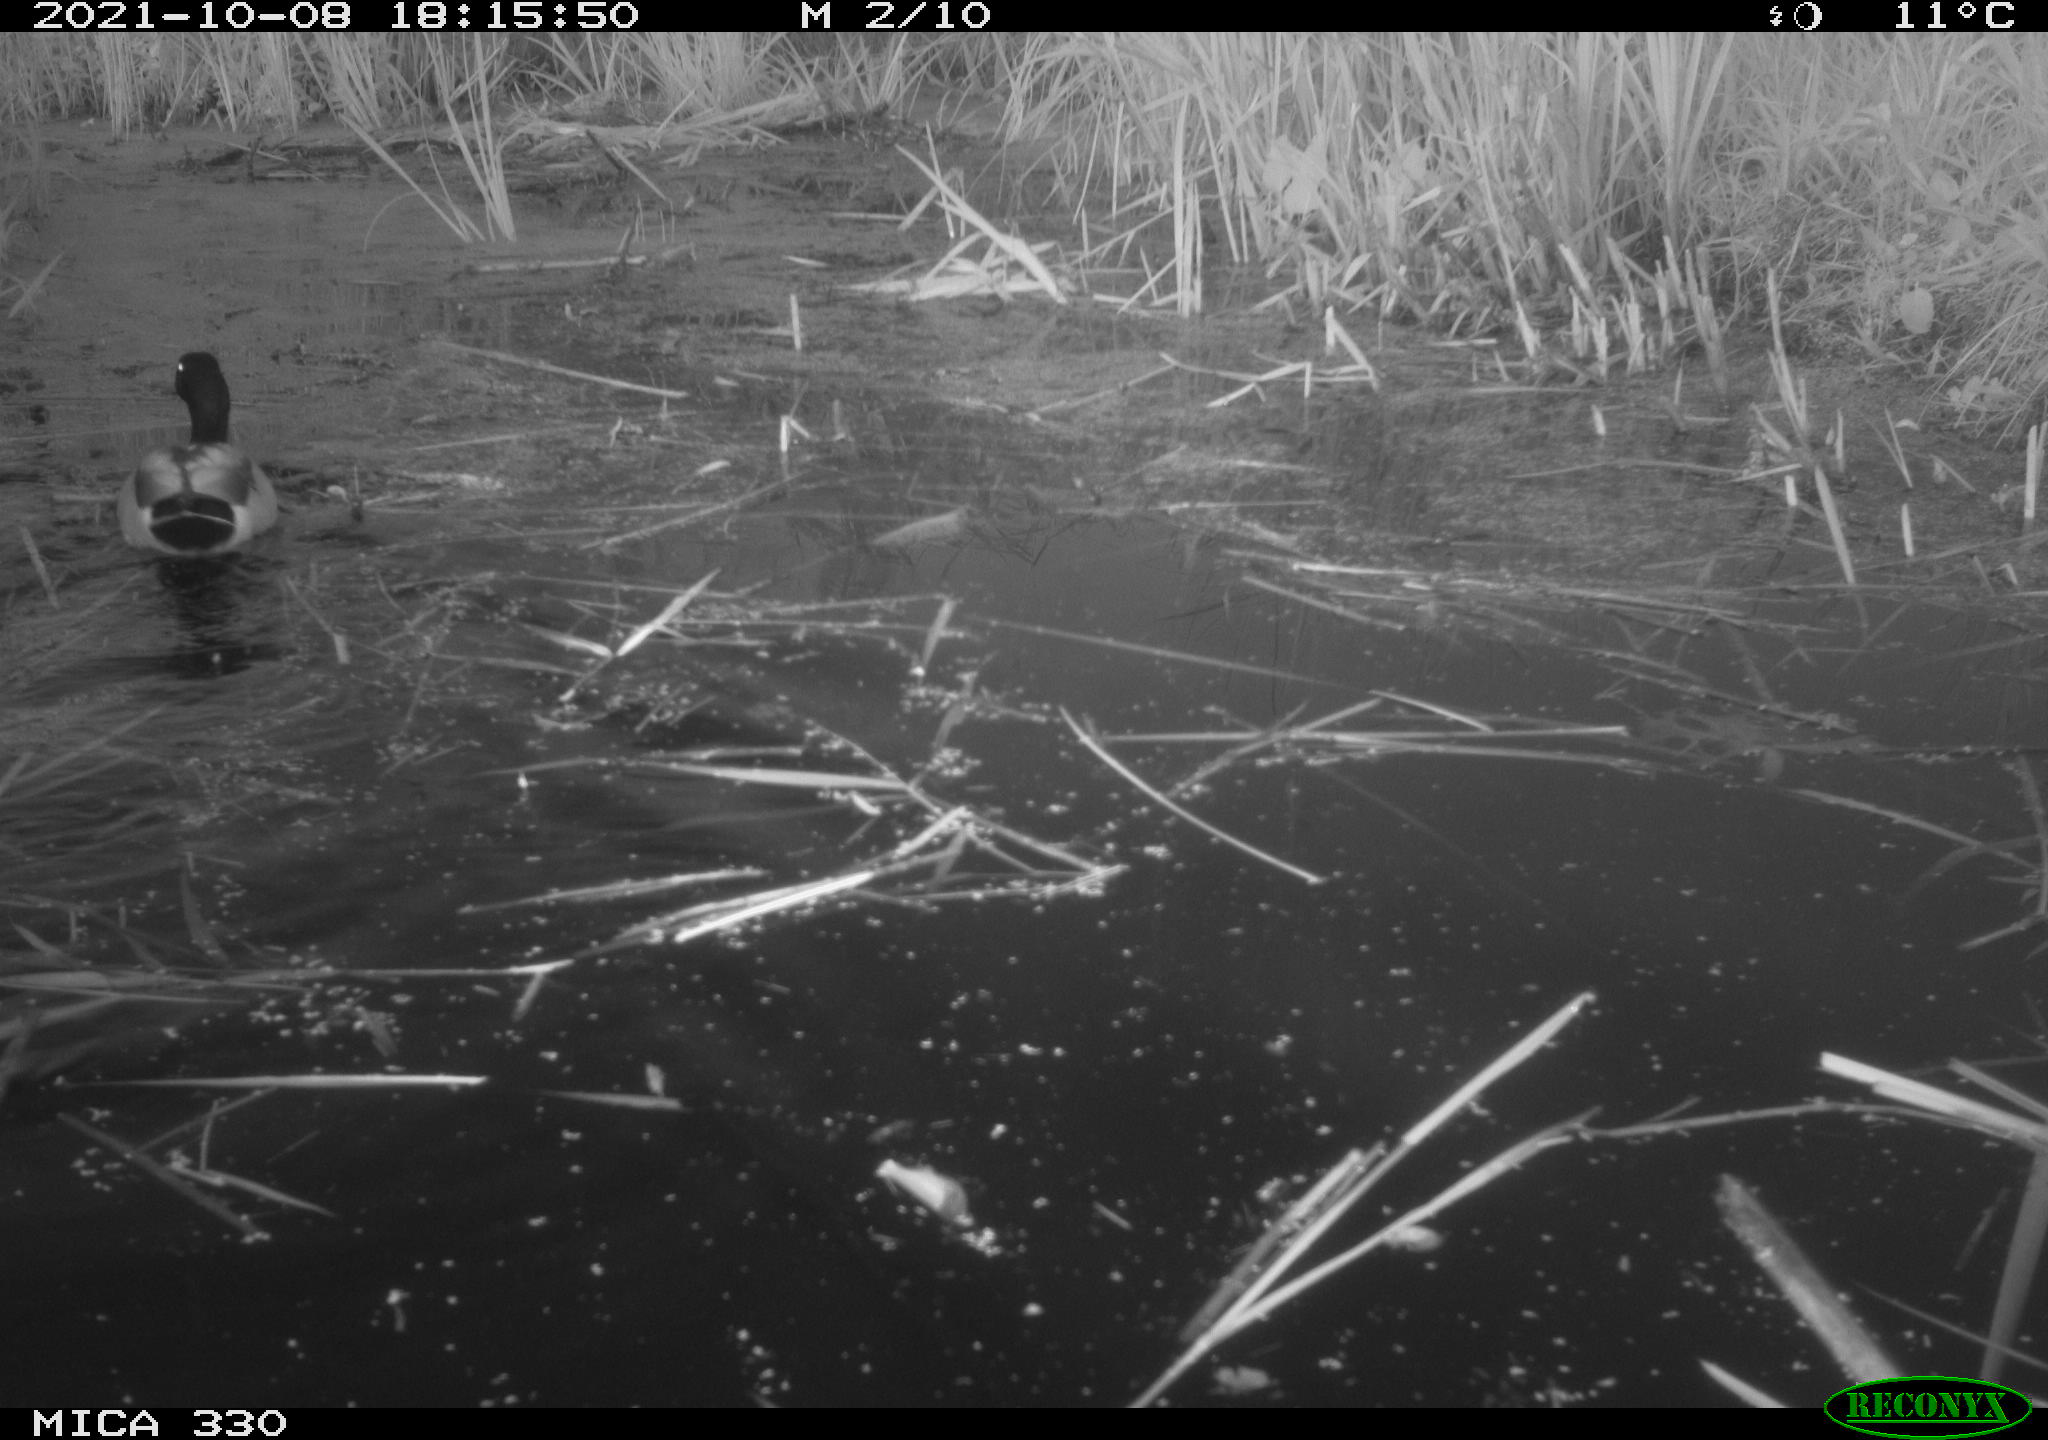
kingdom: Animalia
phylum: Chordata
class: Aves
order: Anseriformes
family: Anatidae
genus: Anas
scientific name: Anas platyrhynchos
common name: Mallard
